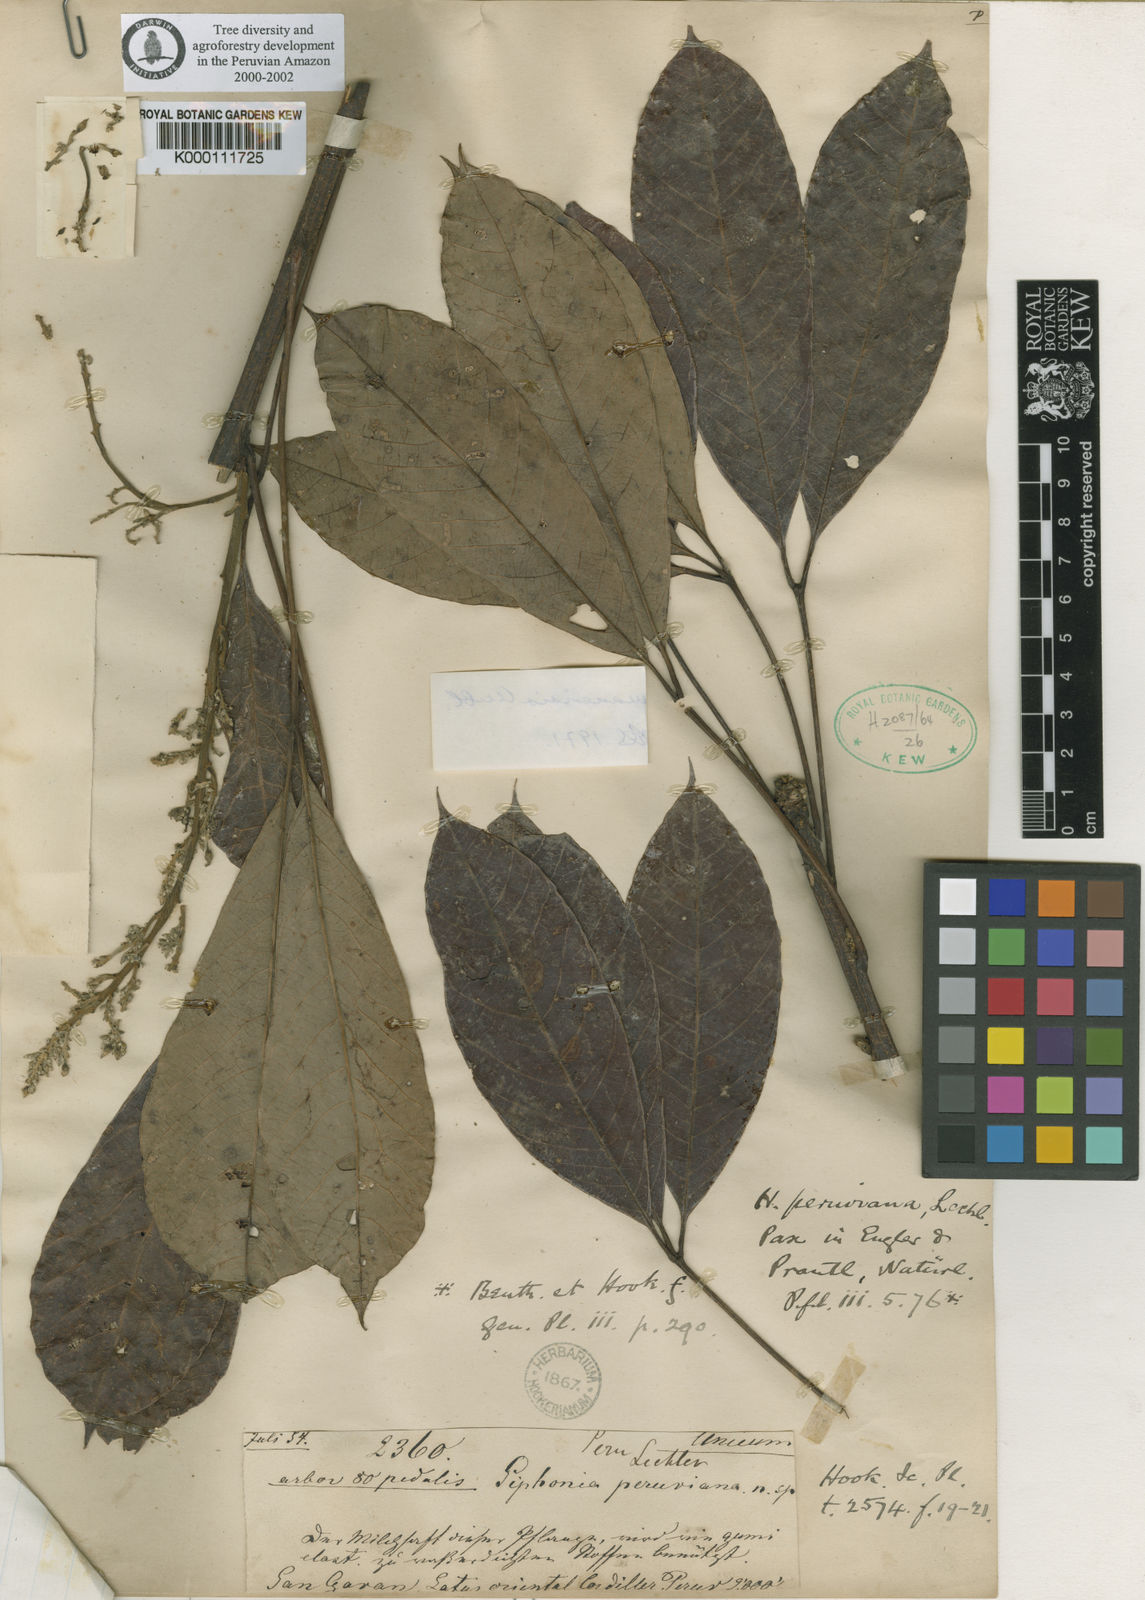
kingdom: Plantae
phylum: Tracheophyta
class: Magnoliopsida
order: Malpighiales
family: Euphorbiaceae
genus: Hevea
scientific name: Hevea guianensis
